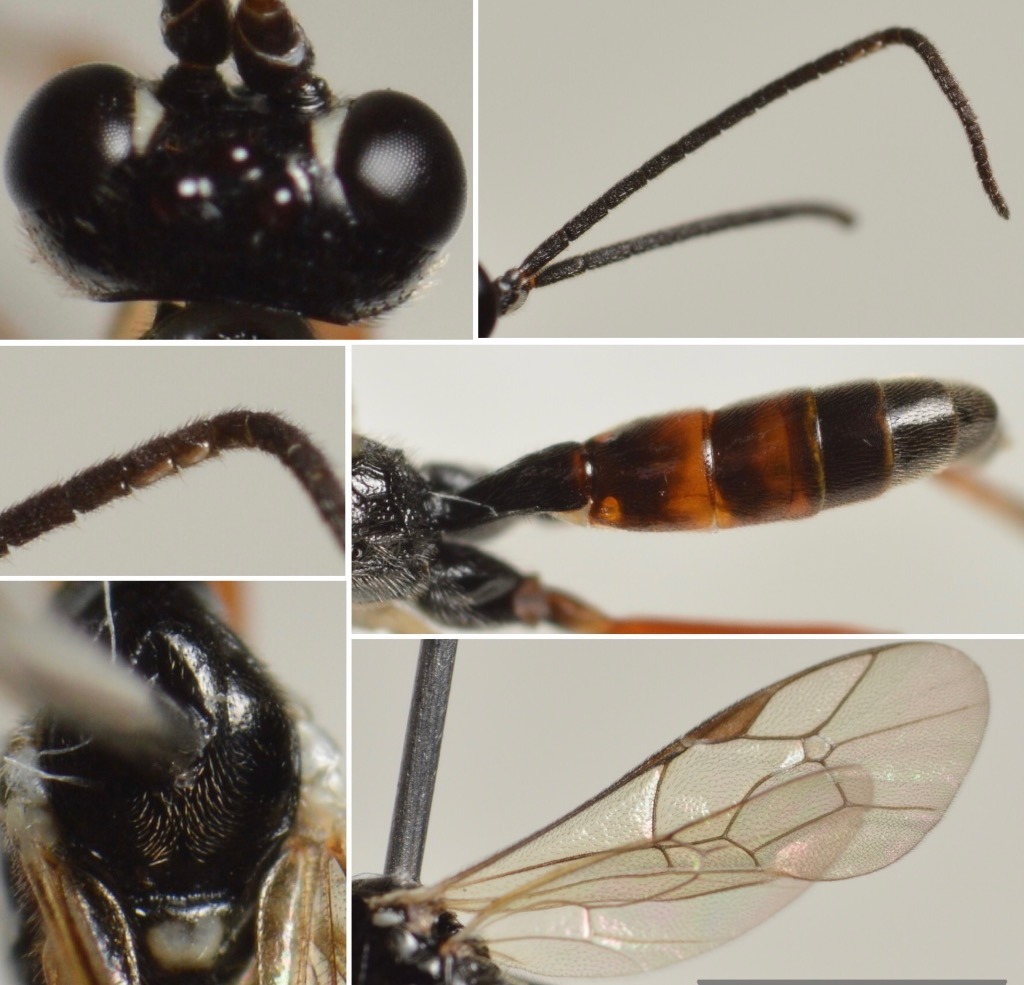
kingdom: Animalia
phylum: Arthropoda
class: Insecta
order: Hymenoptera
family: Ichneumonidae
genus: Oresbius
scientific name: Oresbius arridens
